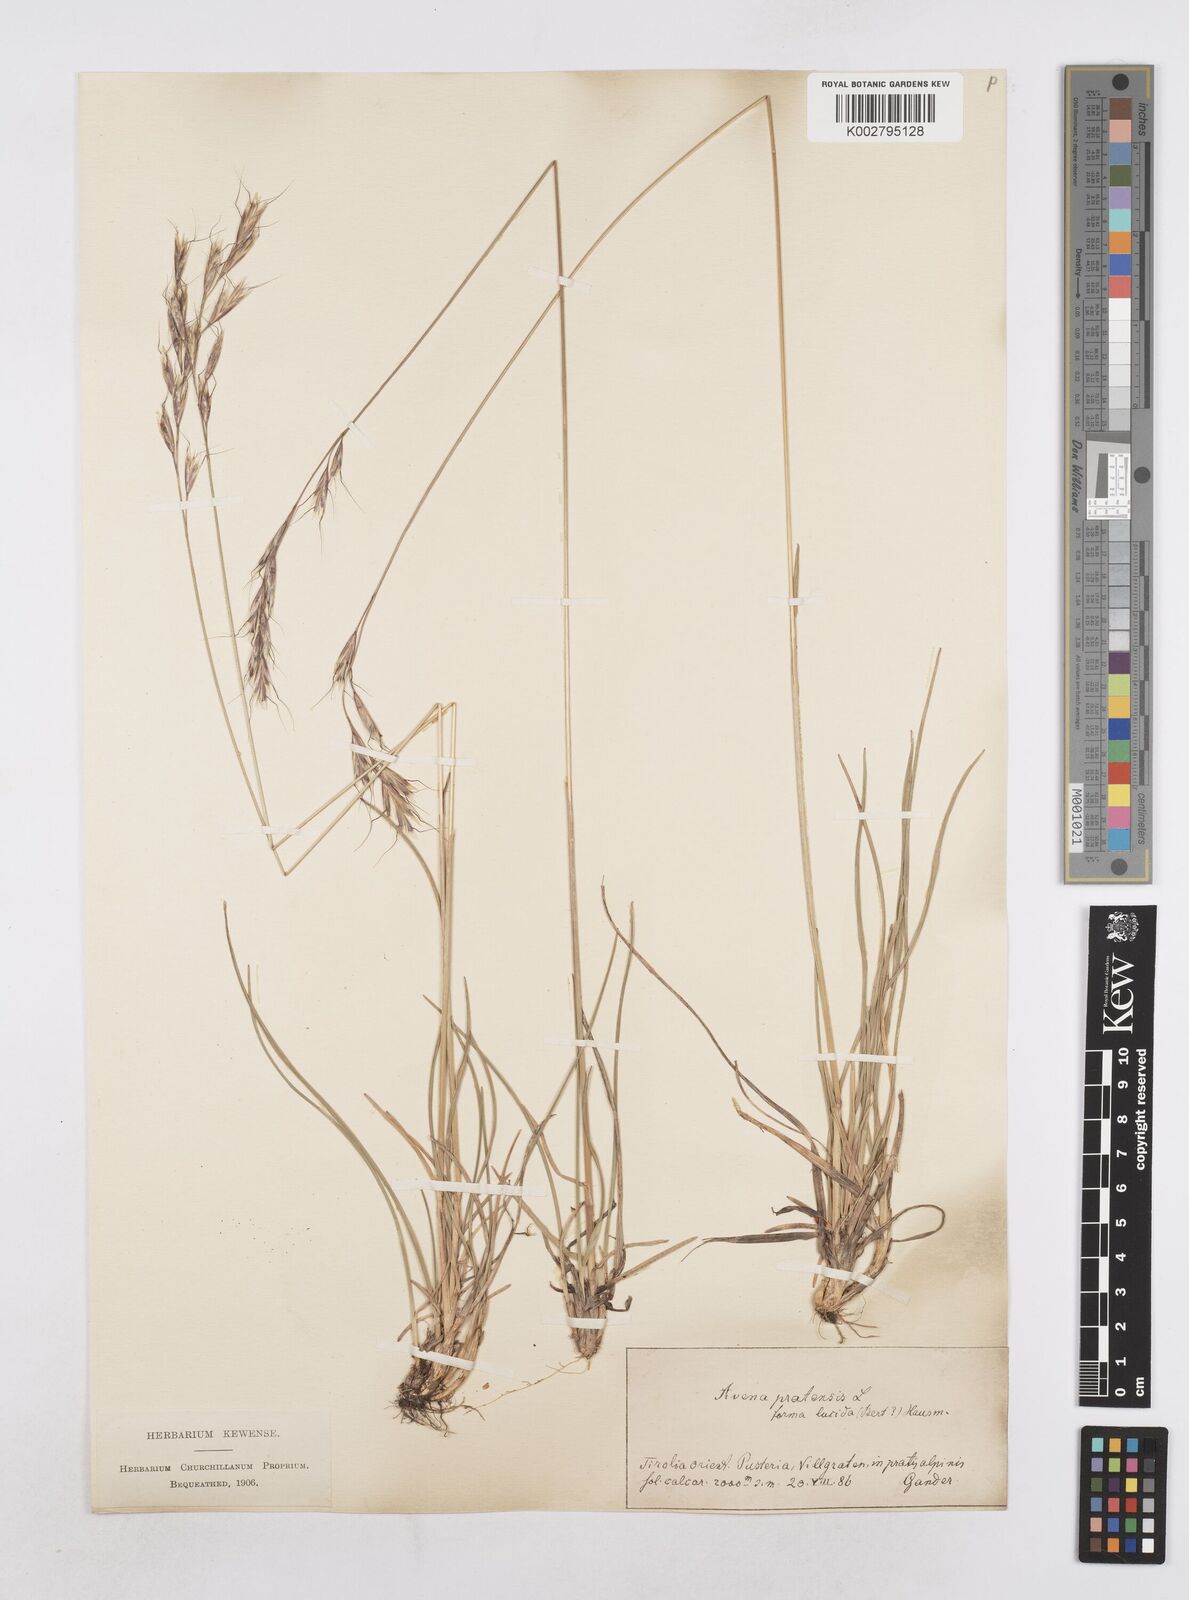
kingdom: Plantae
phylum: Tracheophyta
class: Liliopsida
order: Poales
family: Poaceae
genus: Helictochloa
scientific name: Helictochloa pratensis
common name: Meadow oat grass
